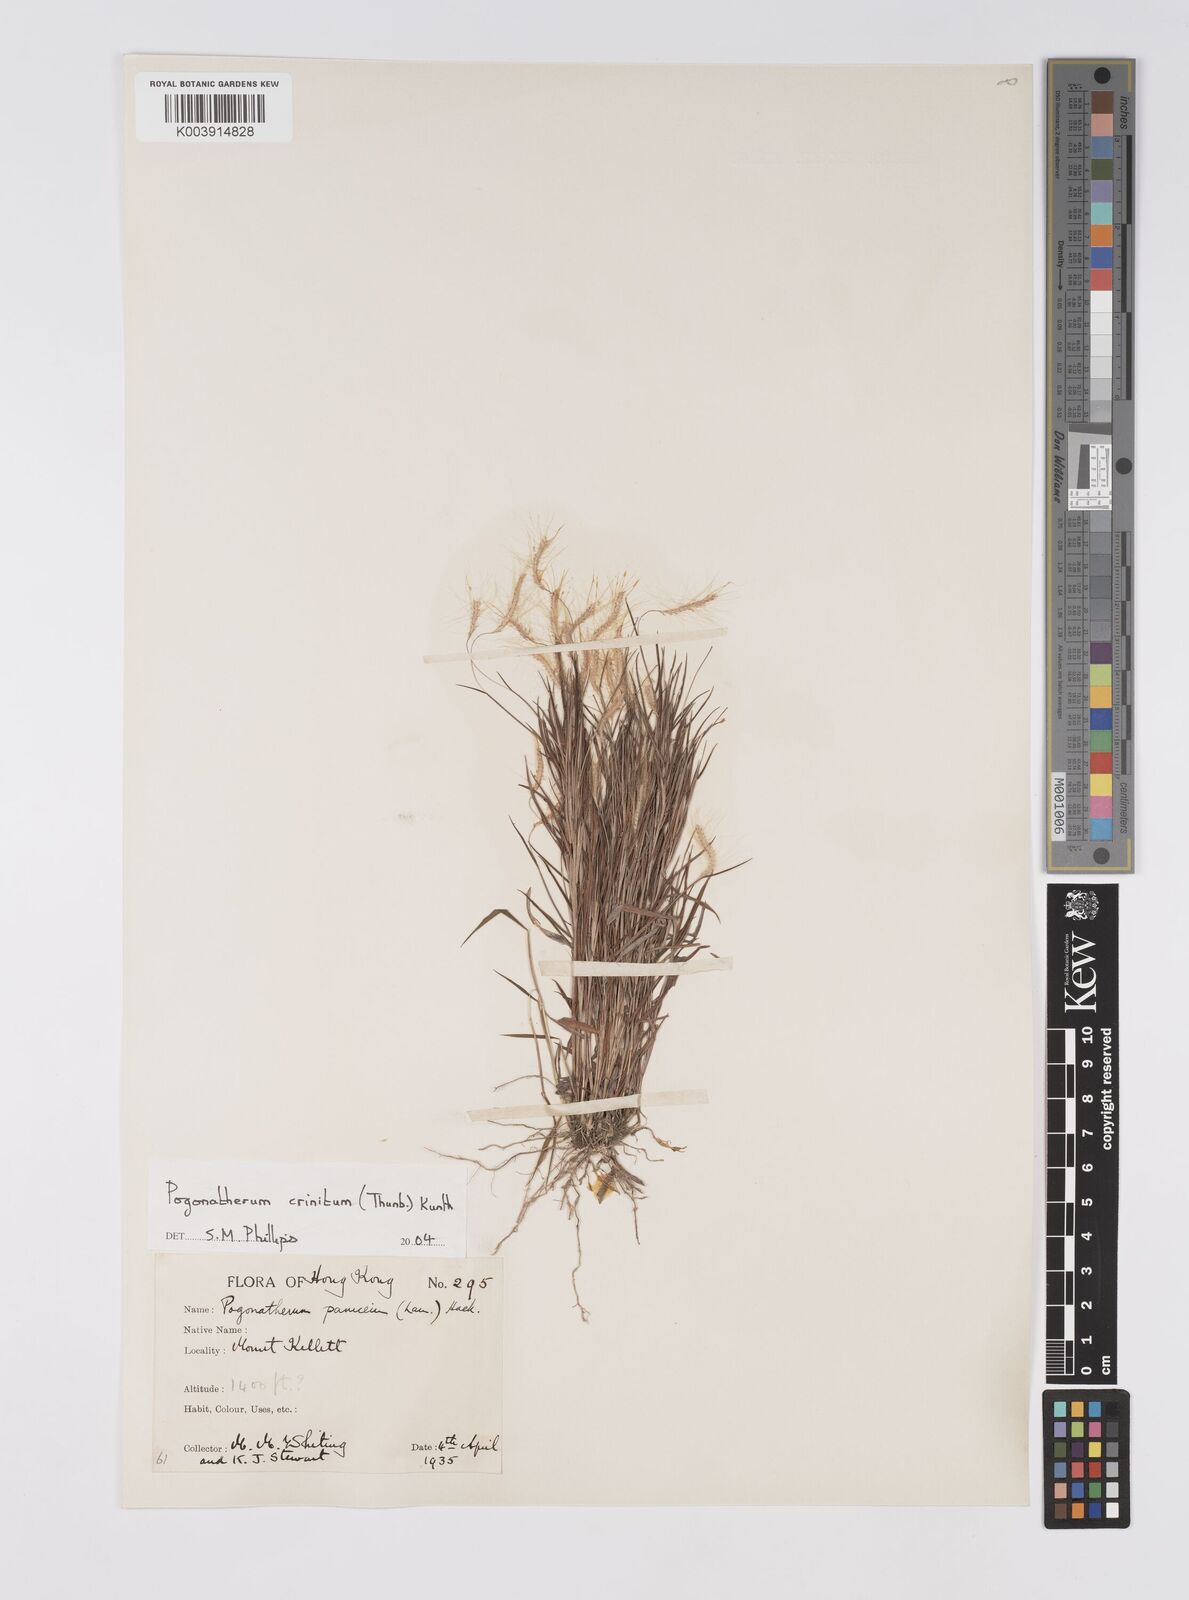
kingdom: Plantae
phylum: Tracheophyta
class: Liliopsida
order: Poales
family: Poaceae
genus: Pogonatherum
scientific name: Pogonatherum crinitum
